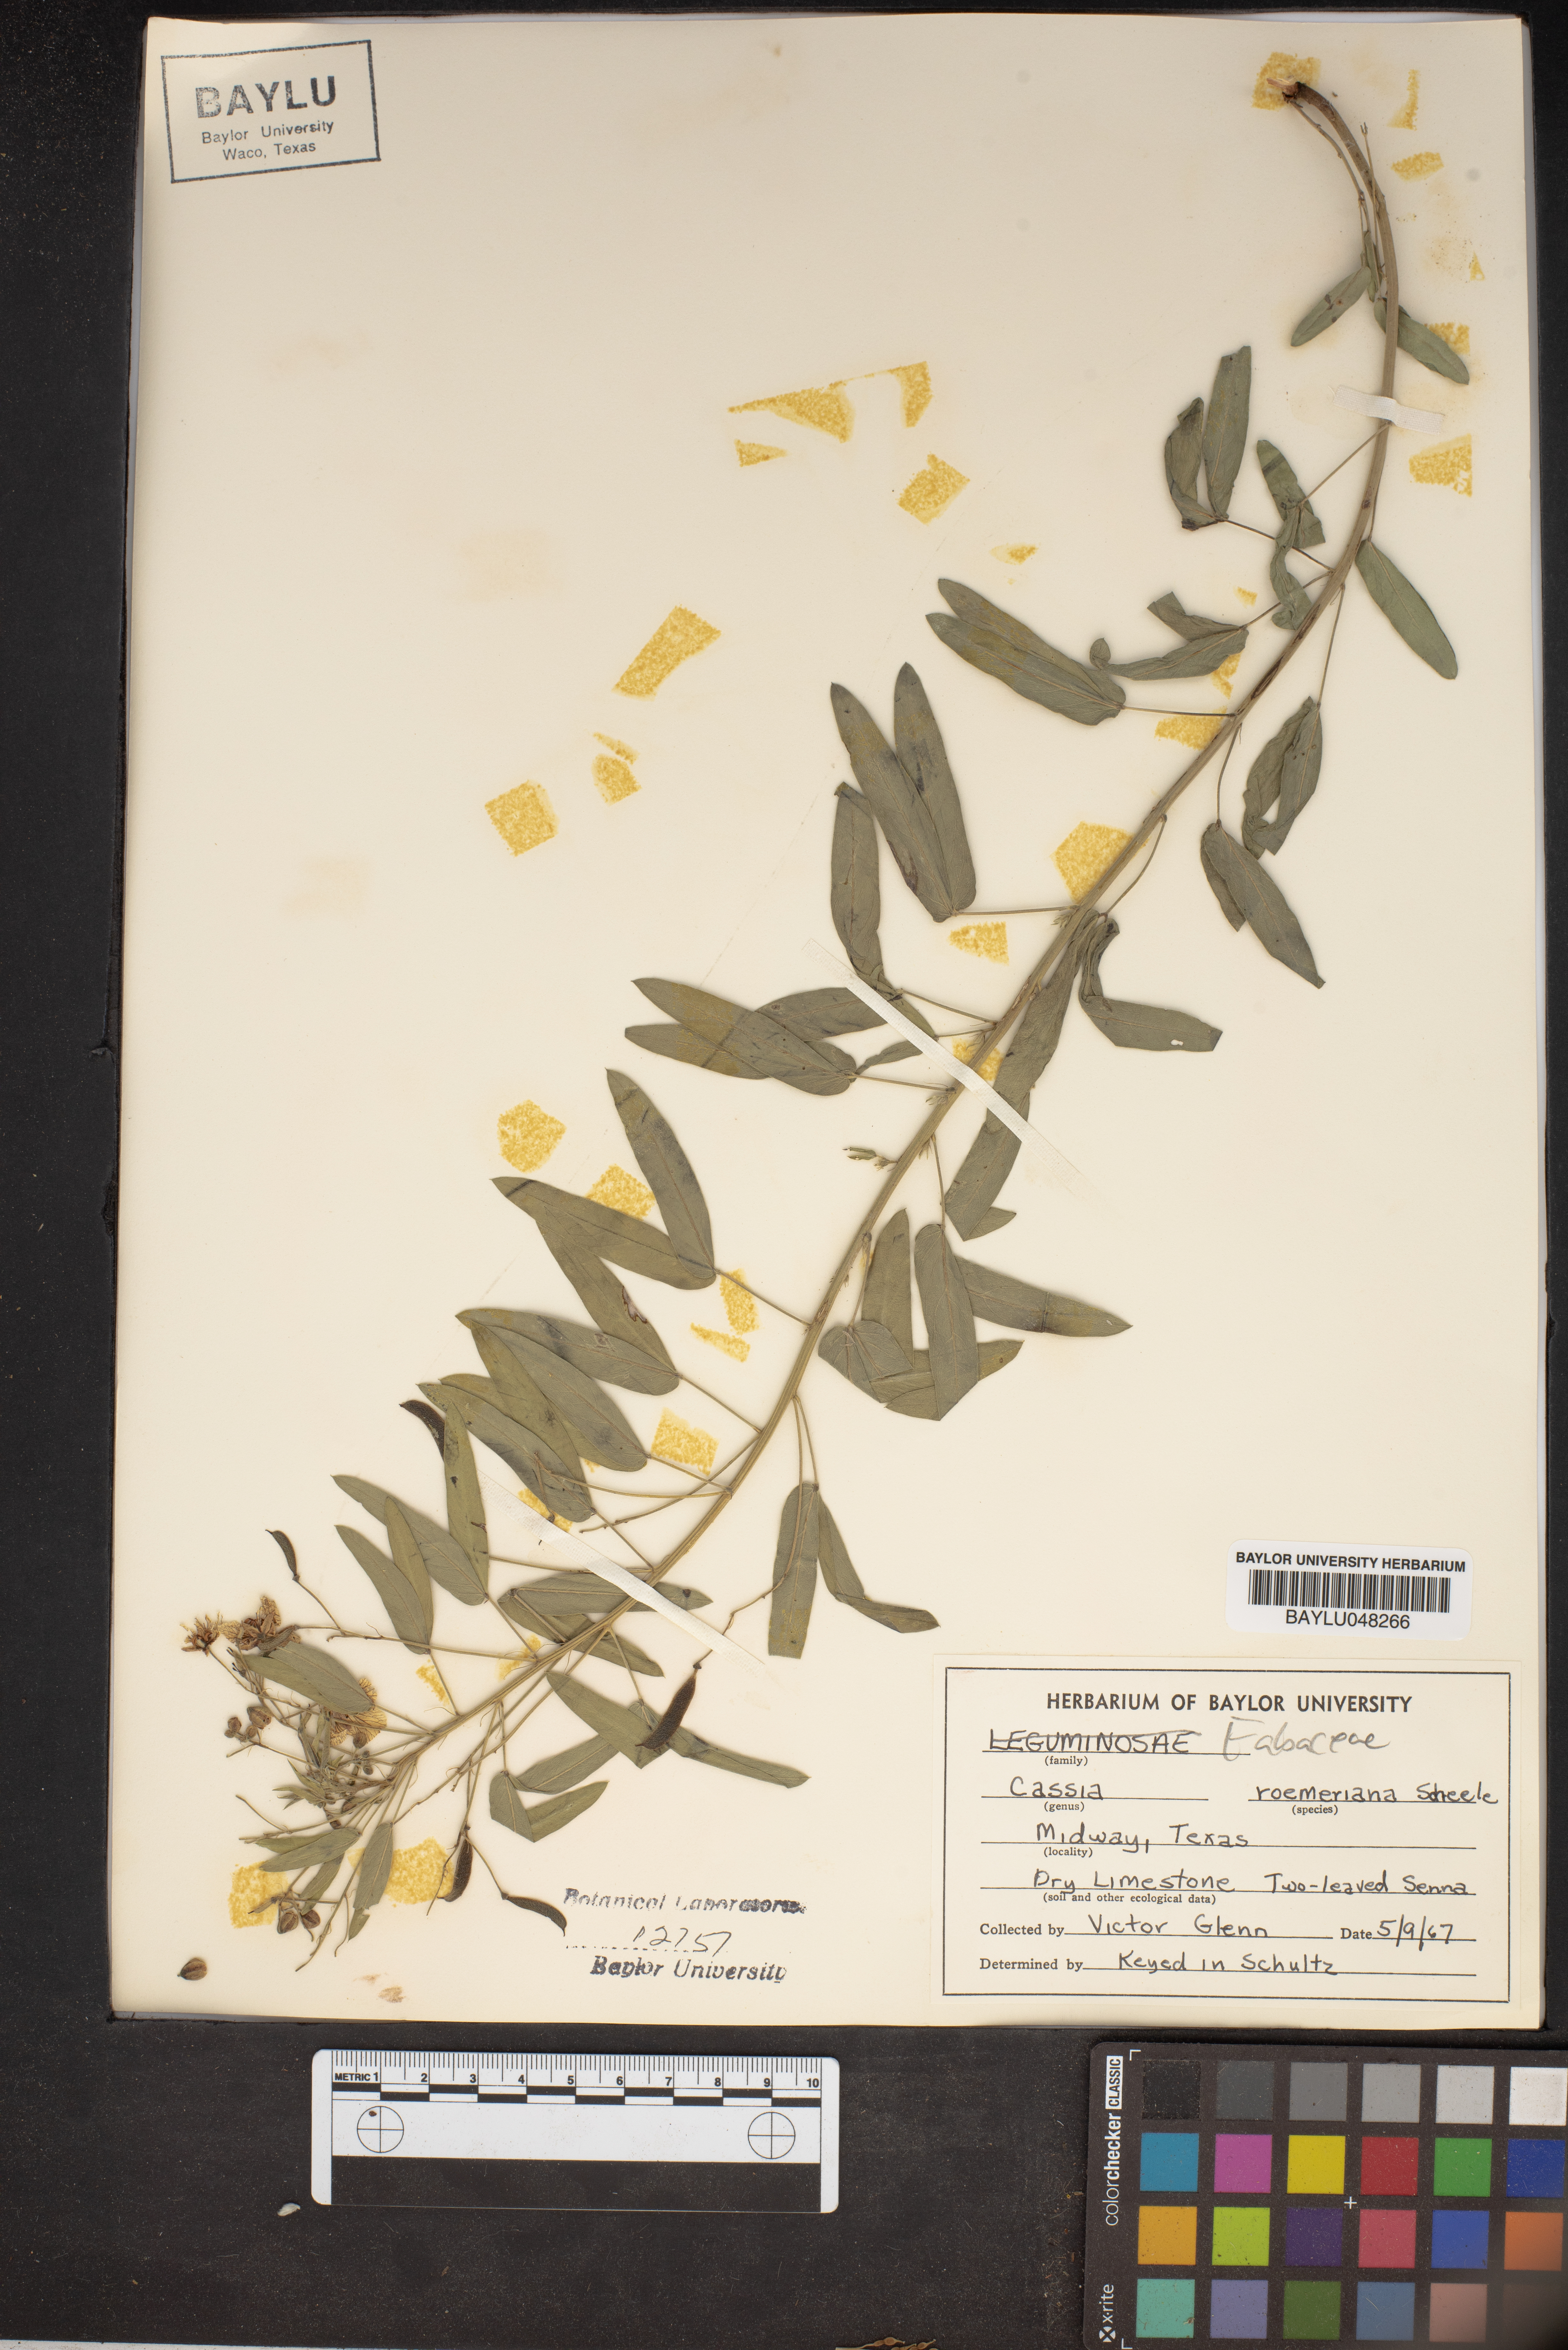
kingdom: Plantae
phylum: Tracheophyta
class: Magnoliopsida
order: Fabales
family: Fabaceae
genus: Senna
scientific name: Senna roemeriana
